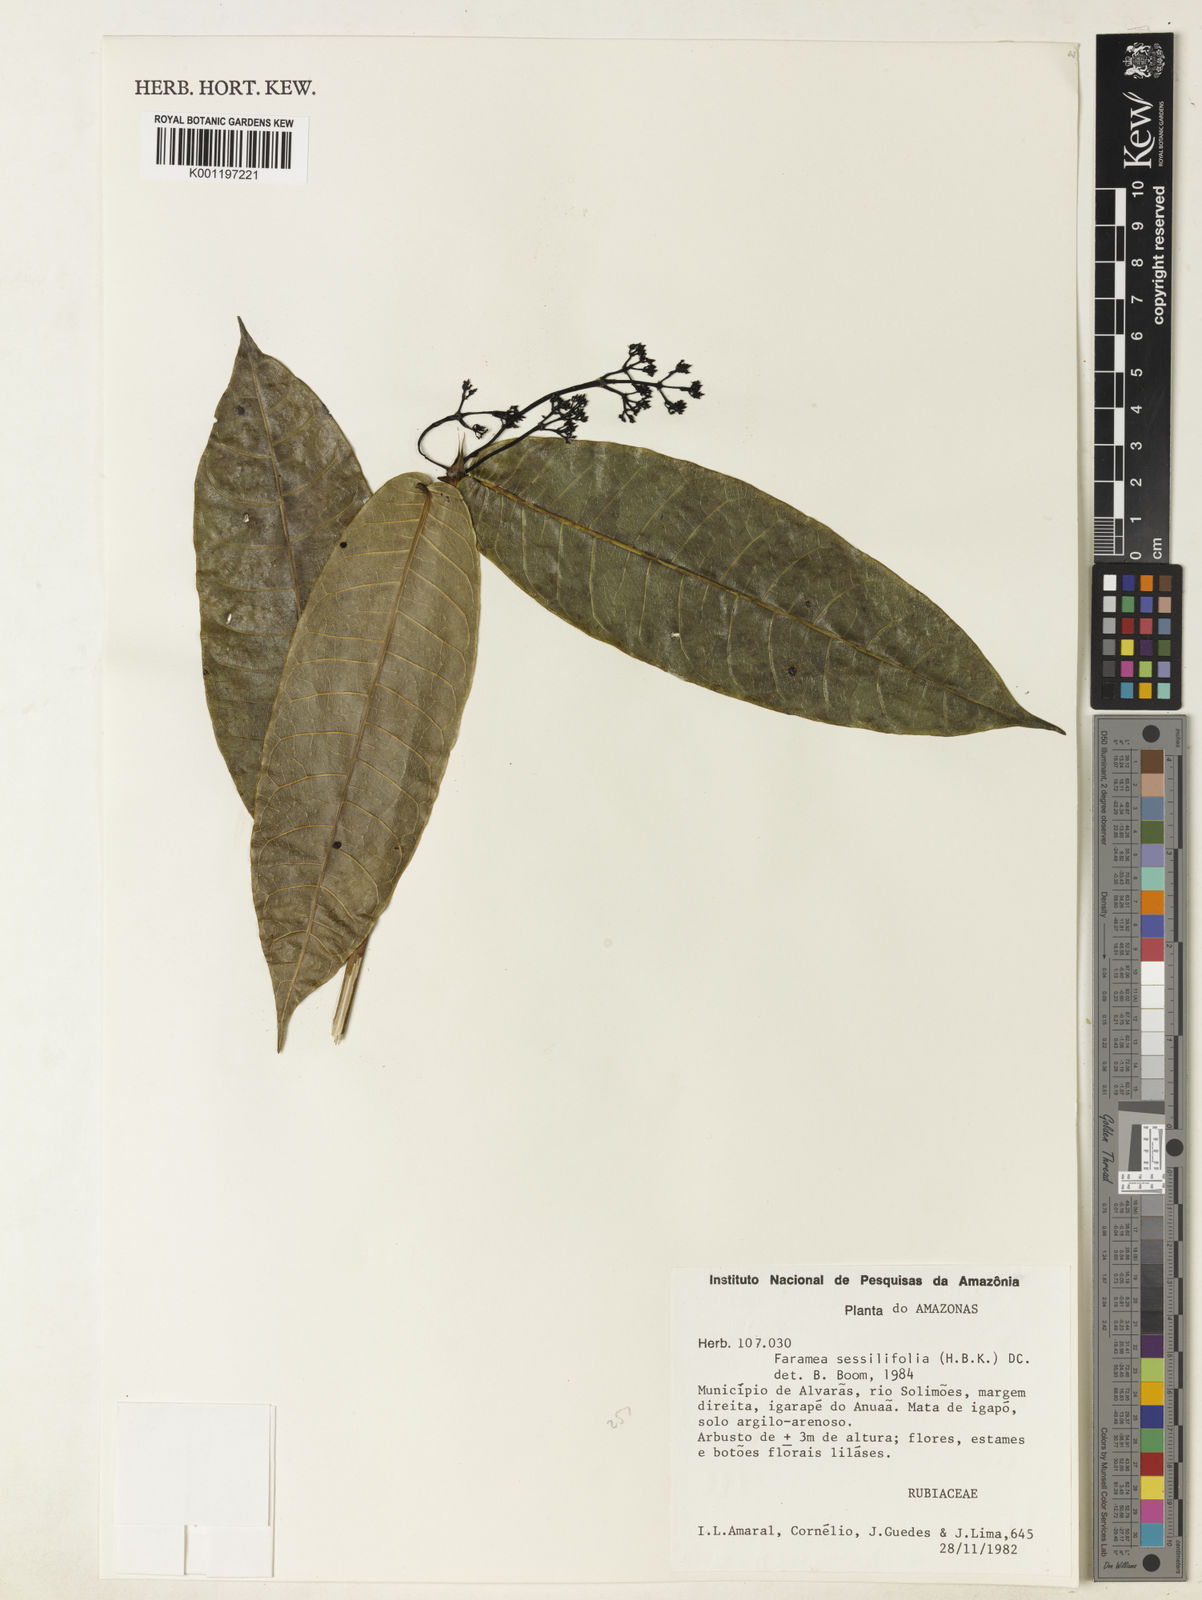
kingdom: Plantae
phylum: Tracheophyta
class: Magnoliopsida
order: Gentianales
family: Rubiaceae
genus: Faramea
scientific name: Faramea sessilifolia
